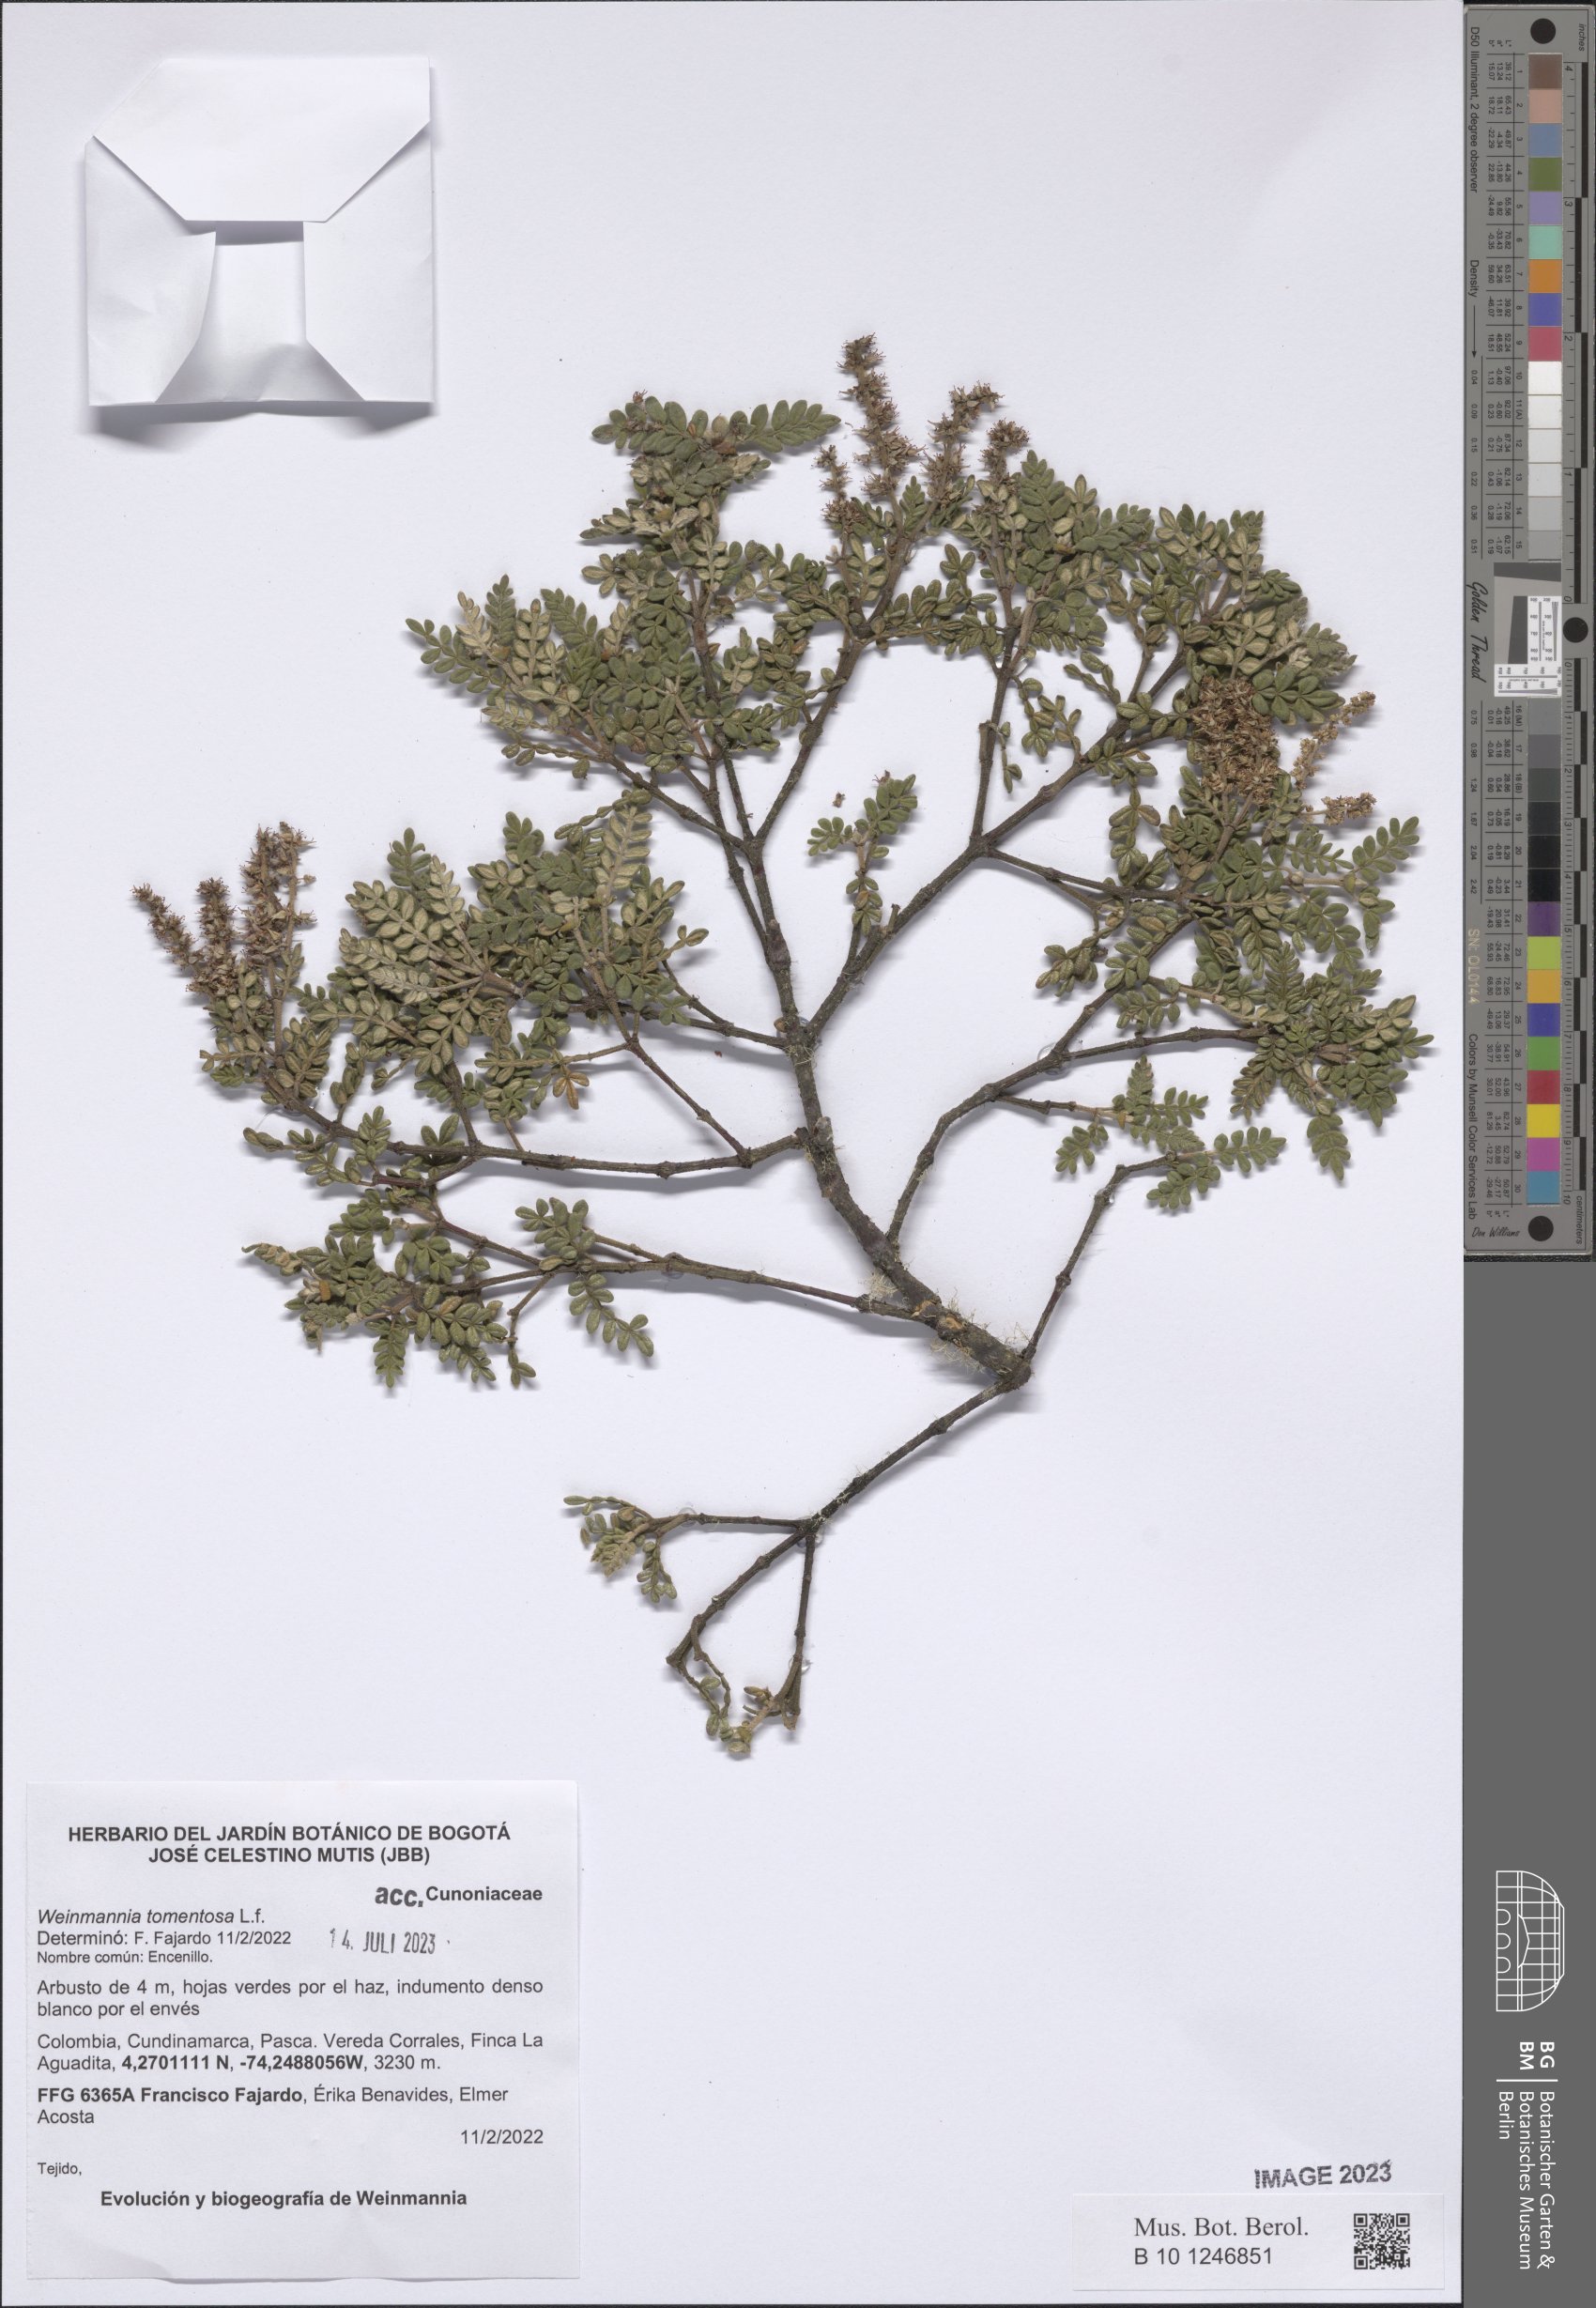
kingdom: Plantae
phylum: Tracheophyta
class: Magnoliopsida
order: Oxalidales
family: Cunoniaceae
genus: Weinmannia
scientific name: Weinmannia tomentosa
